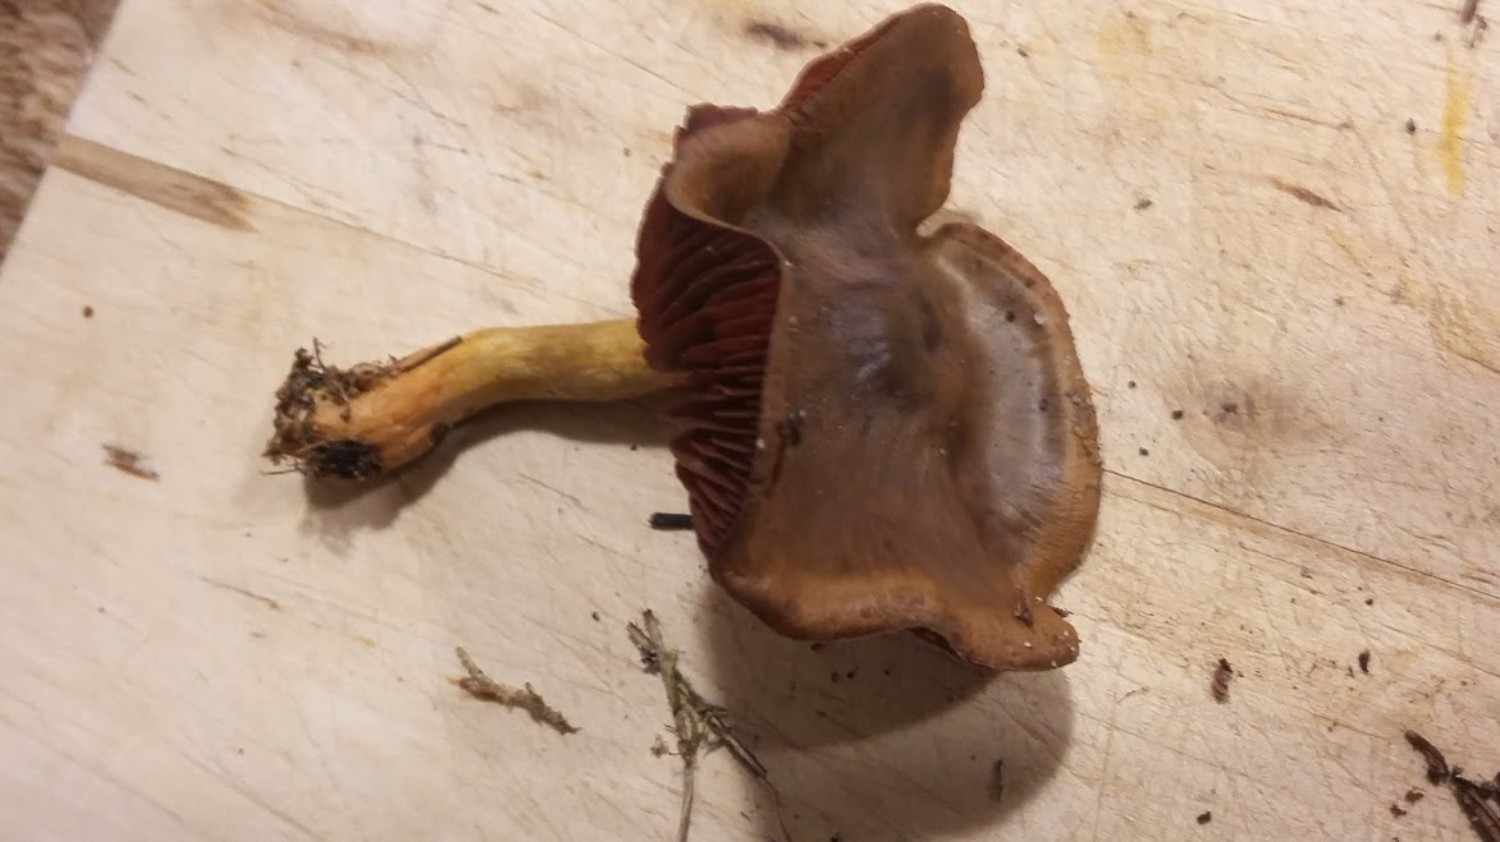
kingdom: Fungi
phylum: Basidiomycota
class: Agaricomycetes
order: Agaricales
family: Cortinariaceae
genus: Cortinarius
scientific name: Cortinarius
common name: cinnoberbladet slørhat
